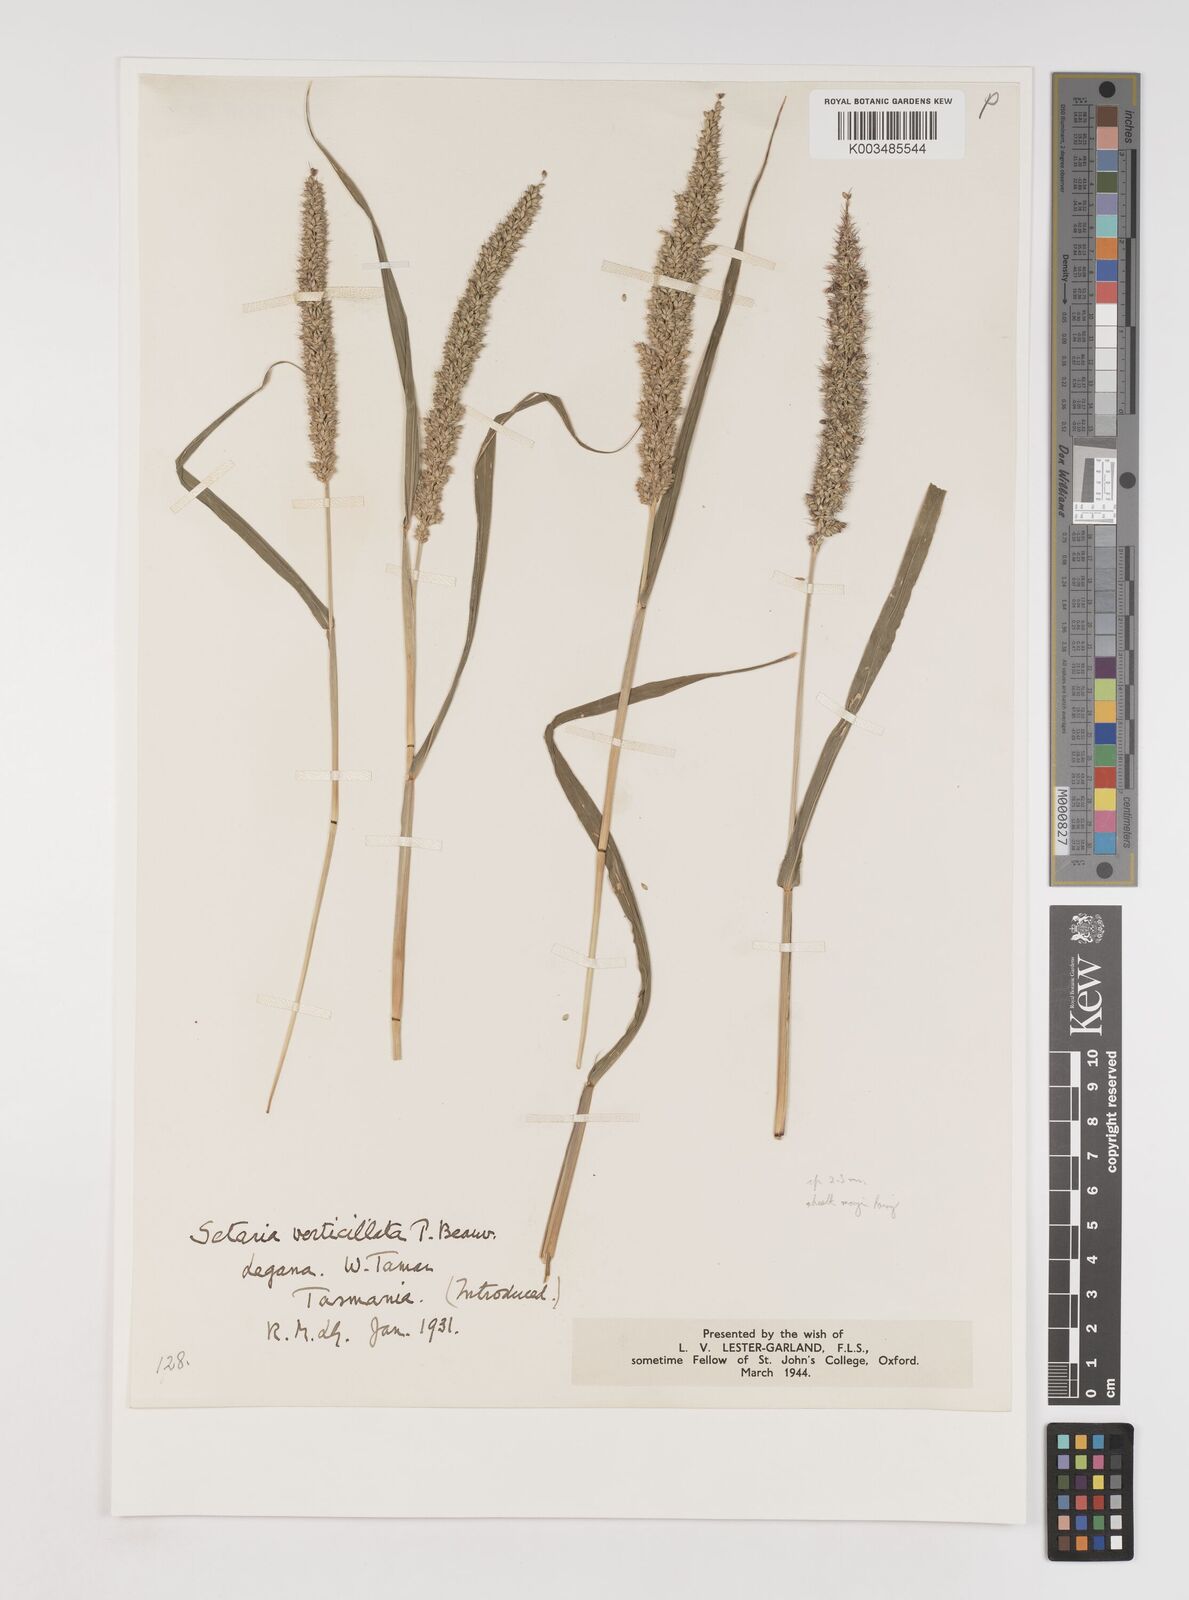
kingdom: Plantae
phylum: Tracheophyta
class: Liliopsida
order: Poales
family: Poaceae
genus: Setaria
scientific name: Setaria verticillata
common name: Hooked bristlegrass
